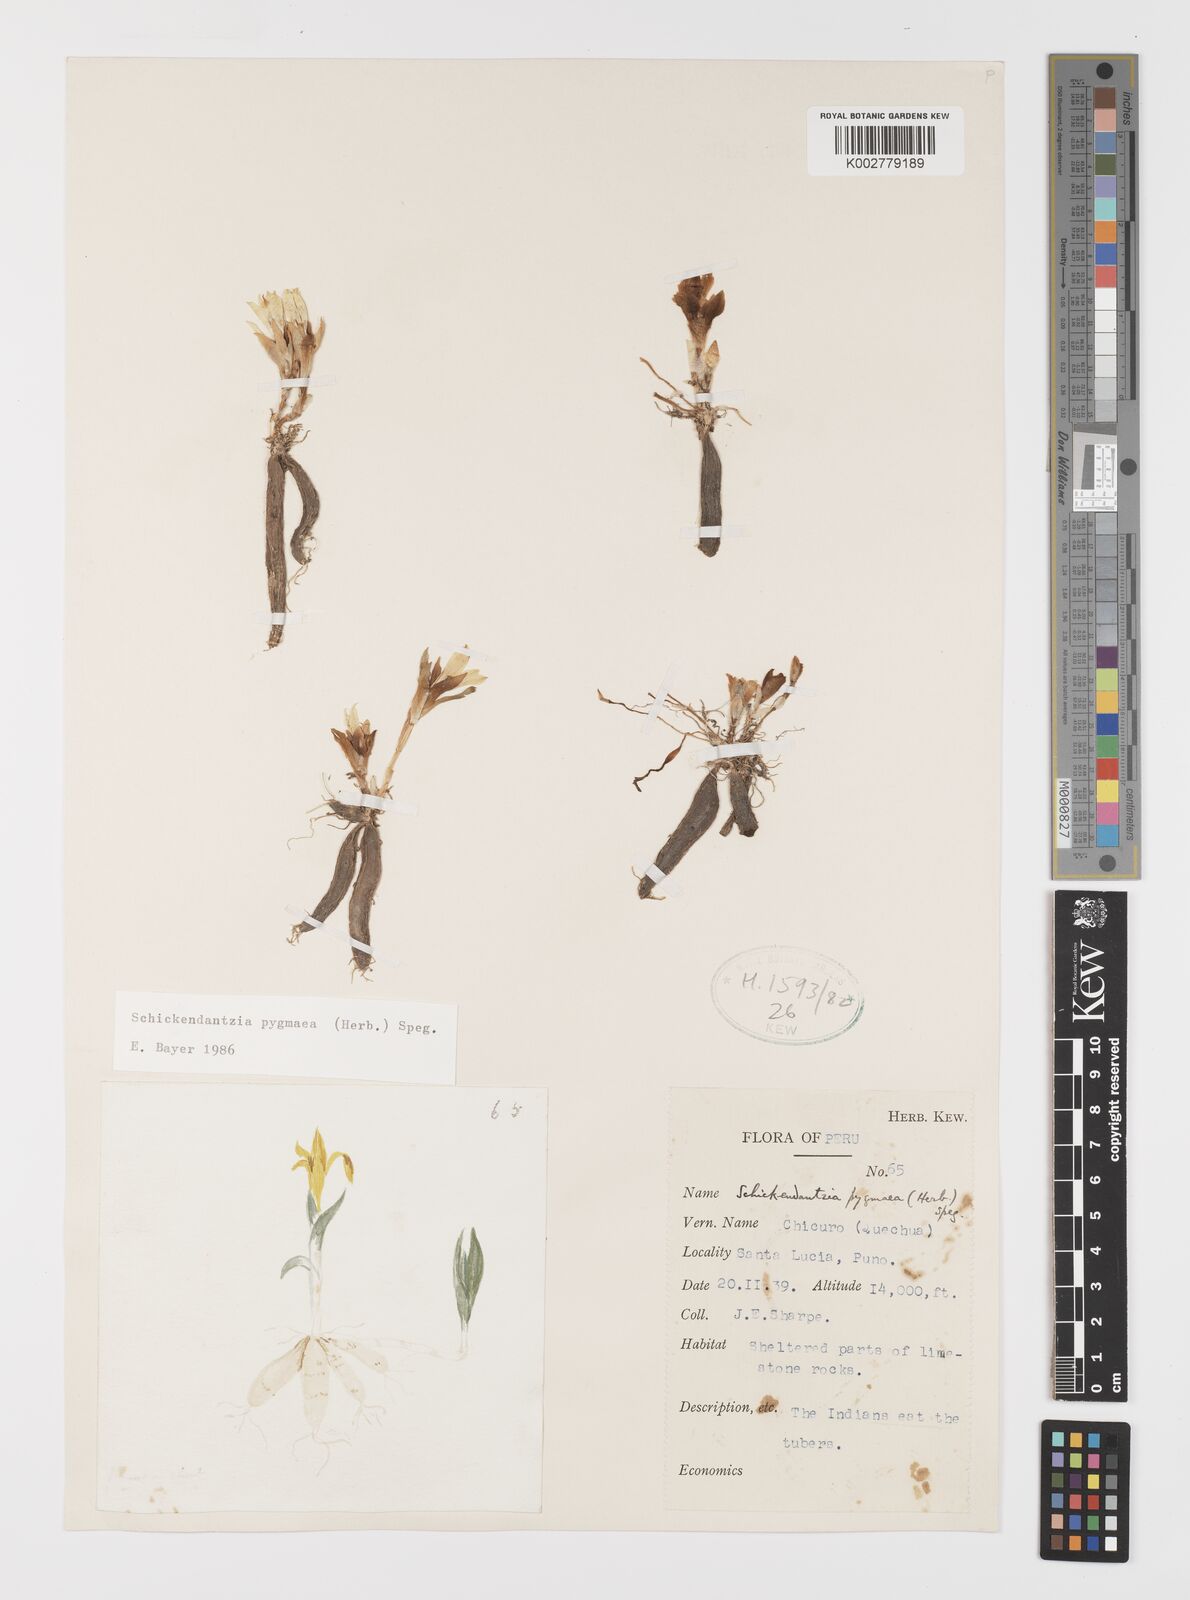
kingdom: Plantae
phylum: Tracheophyta
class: Liliopsida
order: Liliales
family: Alstroemeriaceae
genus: Alstroemeria
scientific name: Alstroemeria pygmaea
